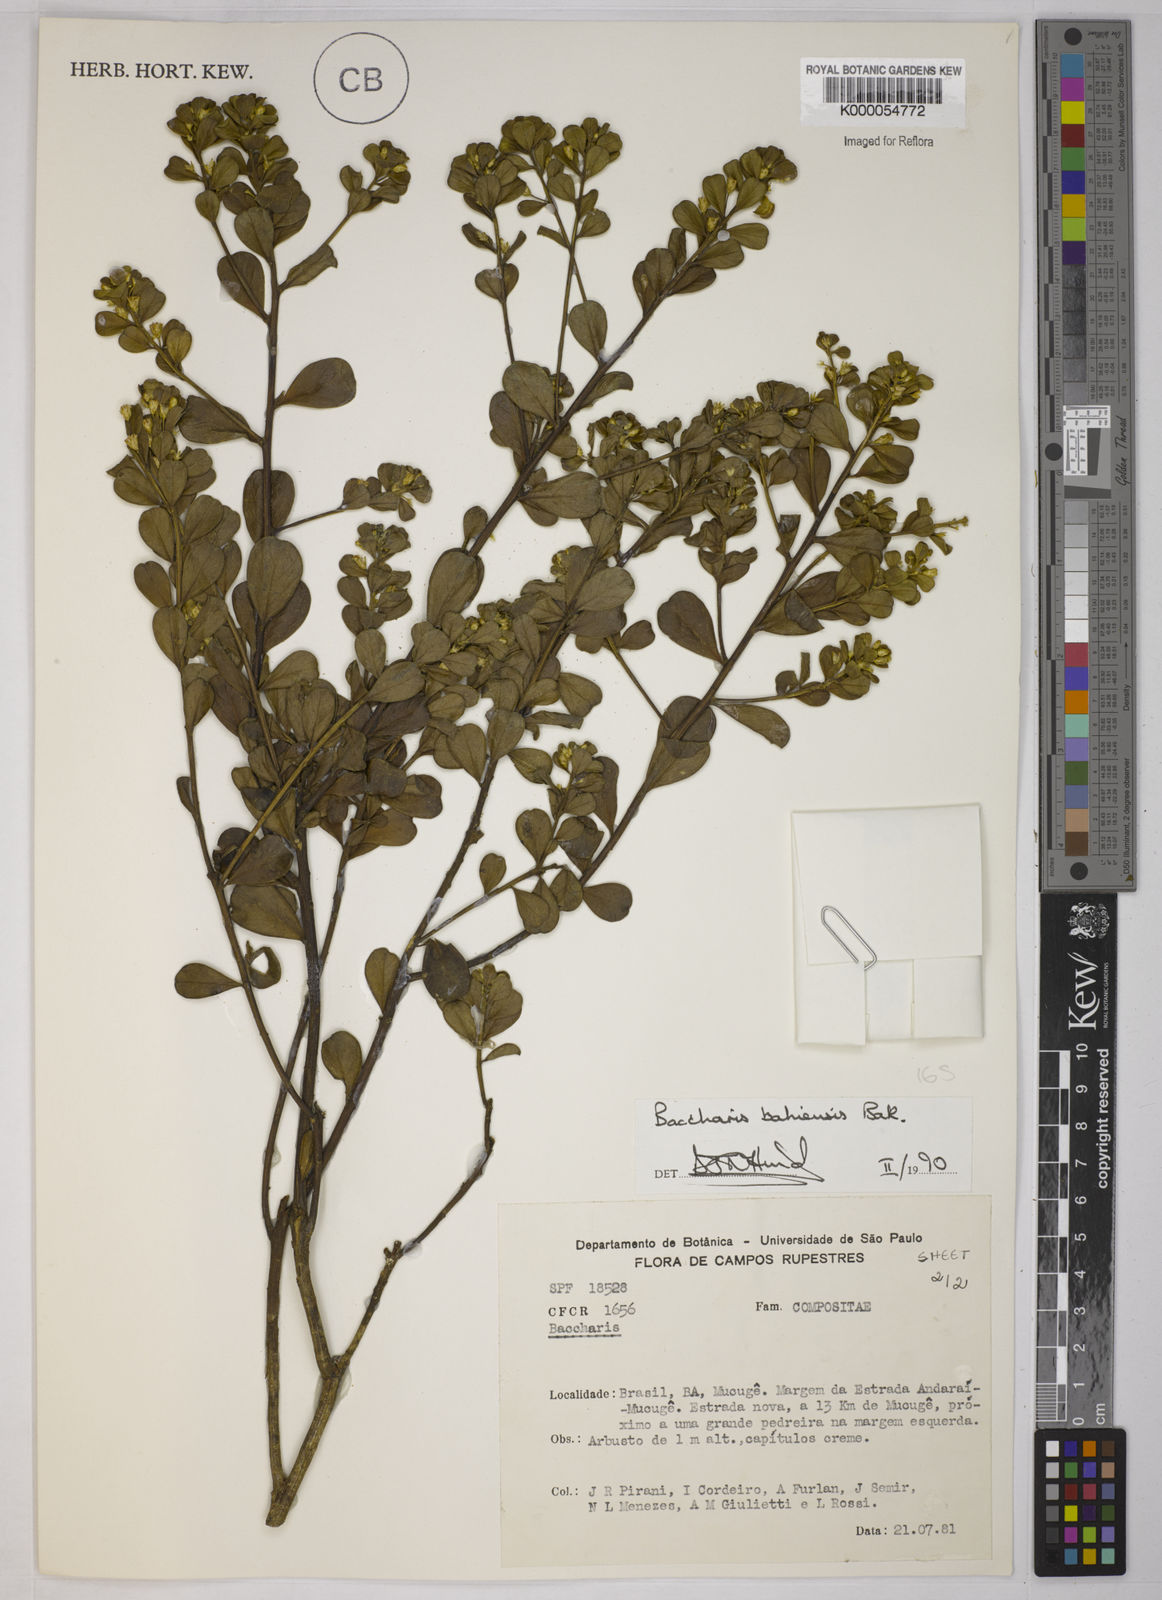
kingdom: Plantae
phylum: Tracheophyta
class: Magnoliopsida
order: Asterales
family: Asteraceae
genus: Baccharis
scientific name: Baccharis
